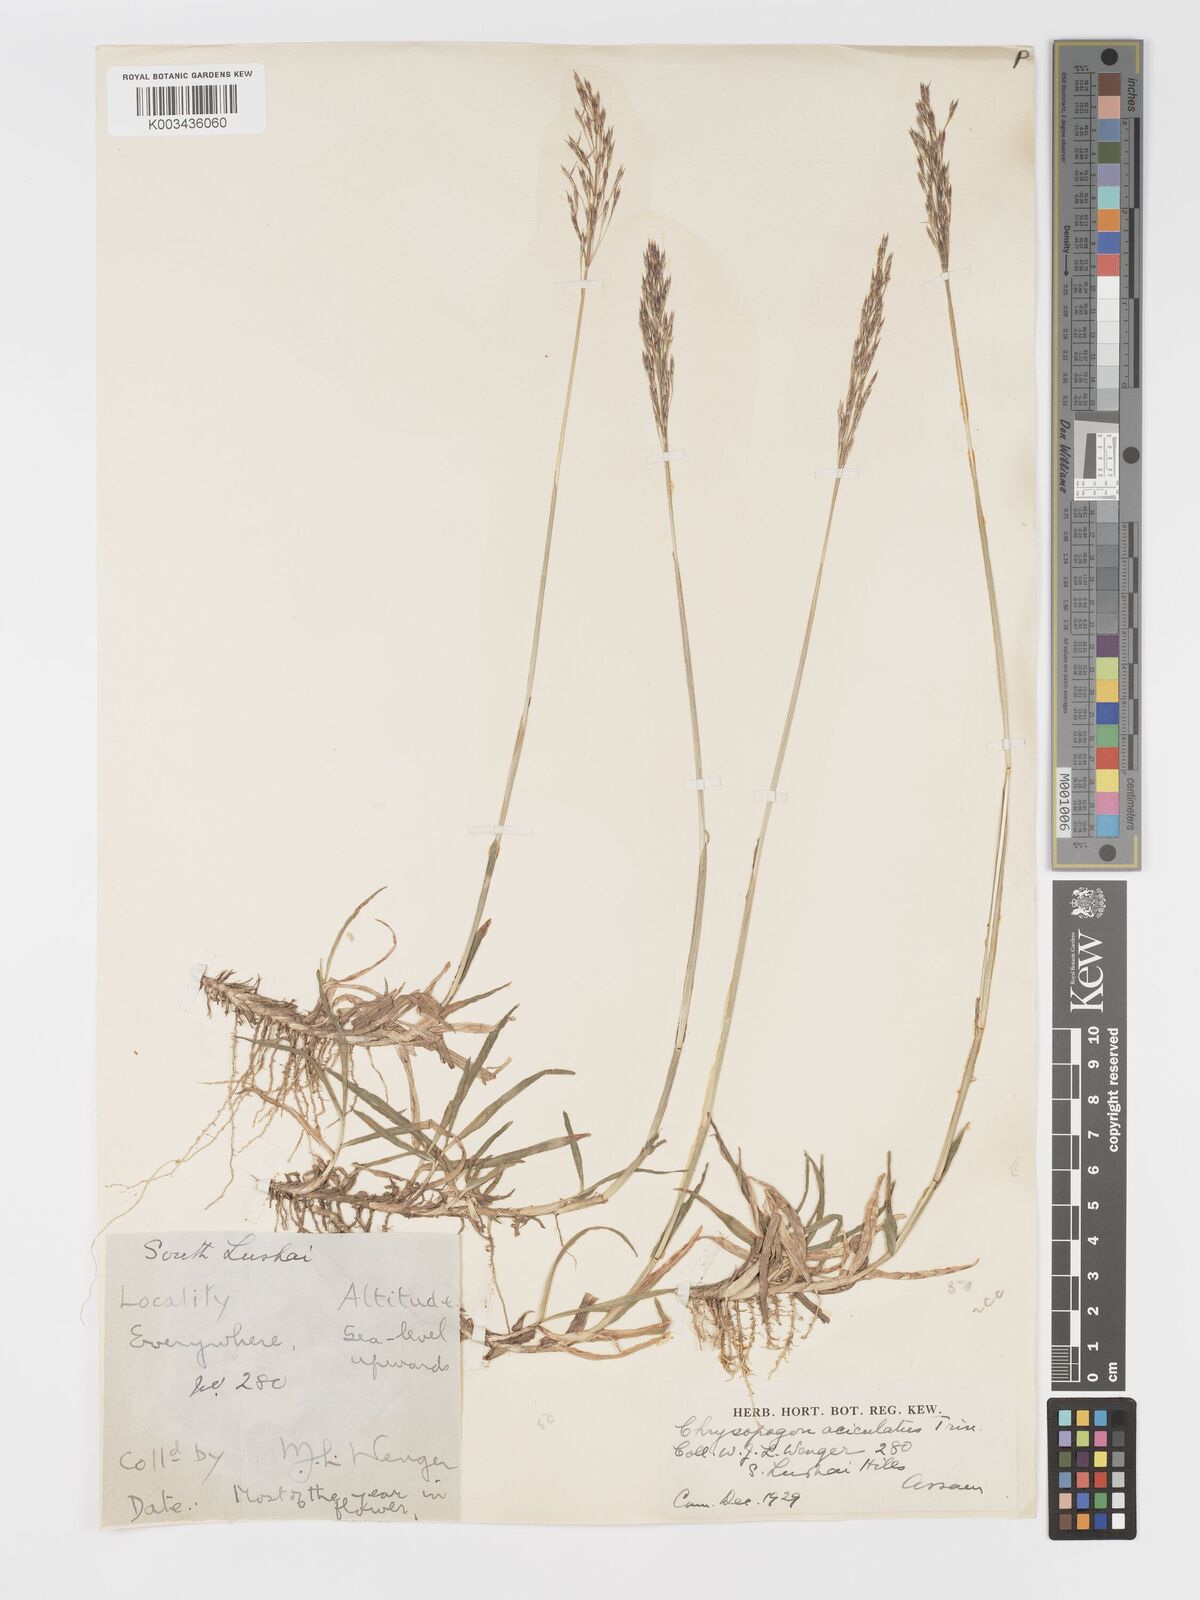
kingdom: Plantae
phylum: Tracheophyta
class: Liliopsida
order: Poales
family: Poaceae
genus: Chrysopogon
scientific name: Chrysopogon aciculatus
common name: Pilipiliula
